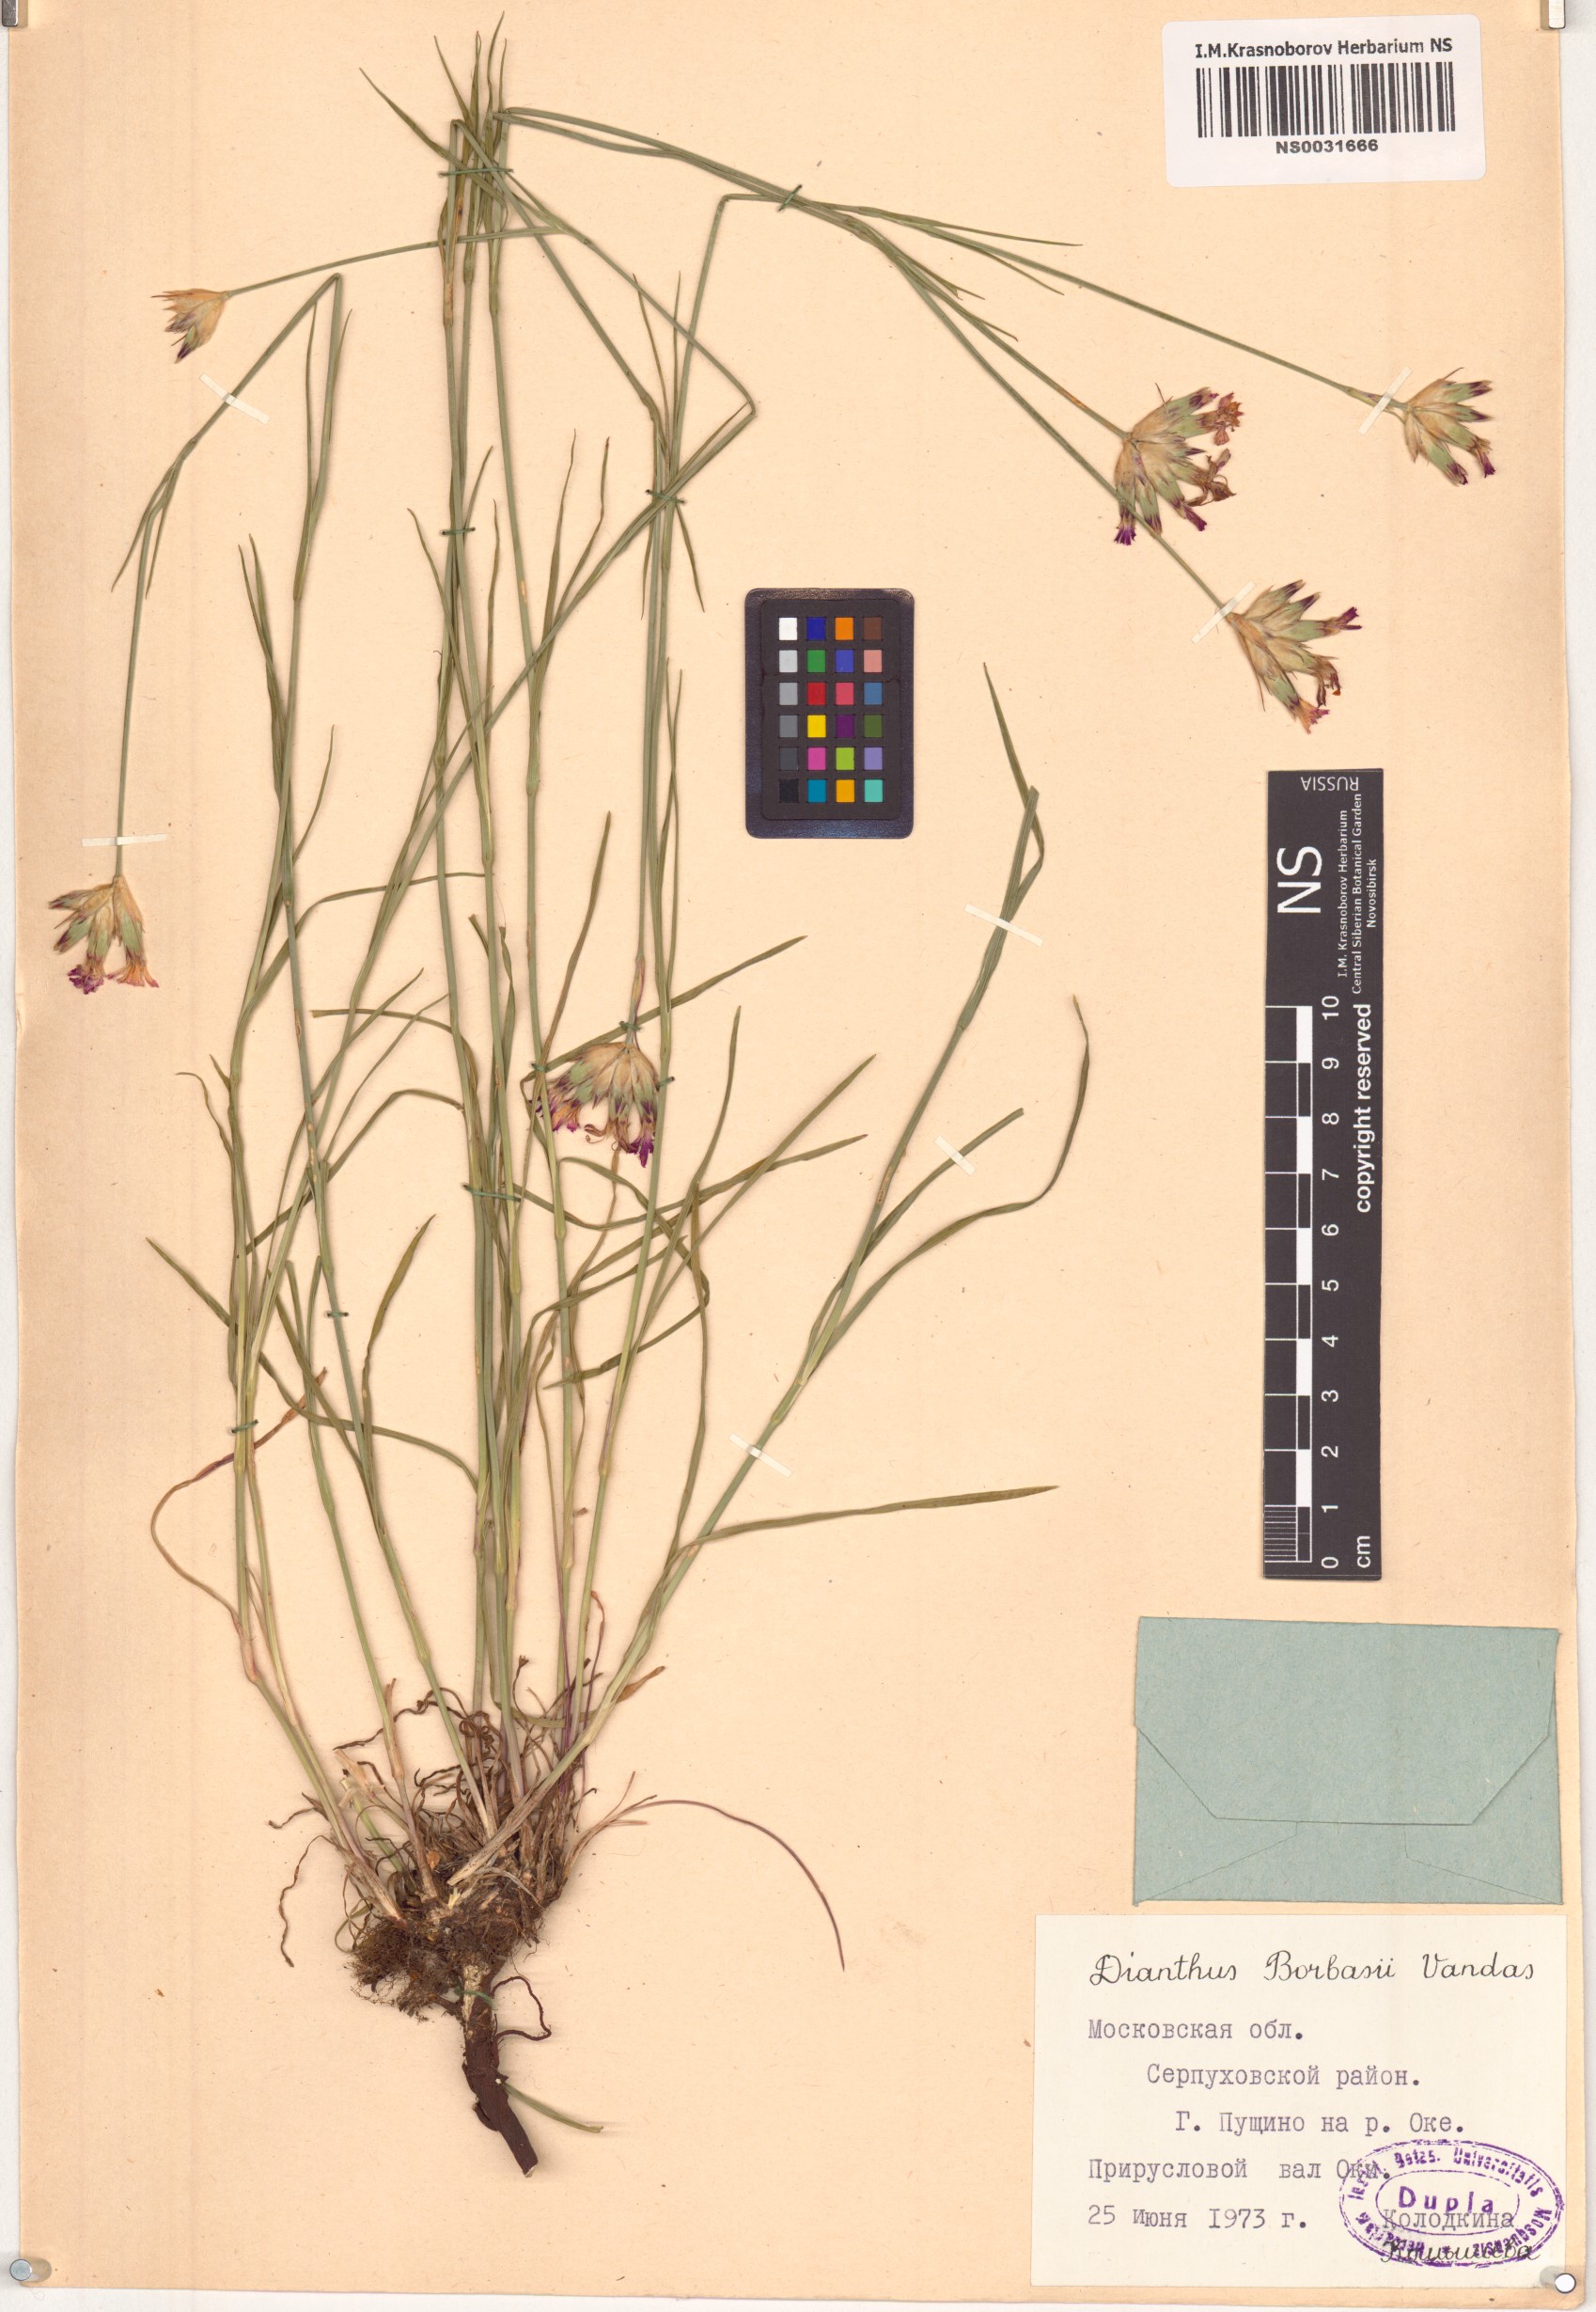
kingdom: Plantae
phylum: Tracheophyta
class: Magnoliopsida
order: Caryophyllales
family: Caryophyllaceae
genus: Dianthus
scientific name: Dianthus borbasii
